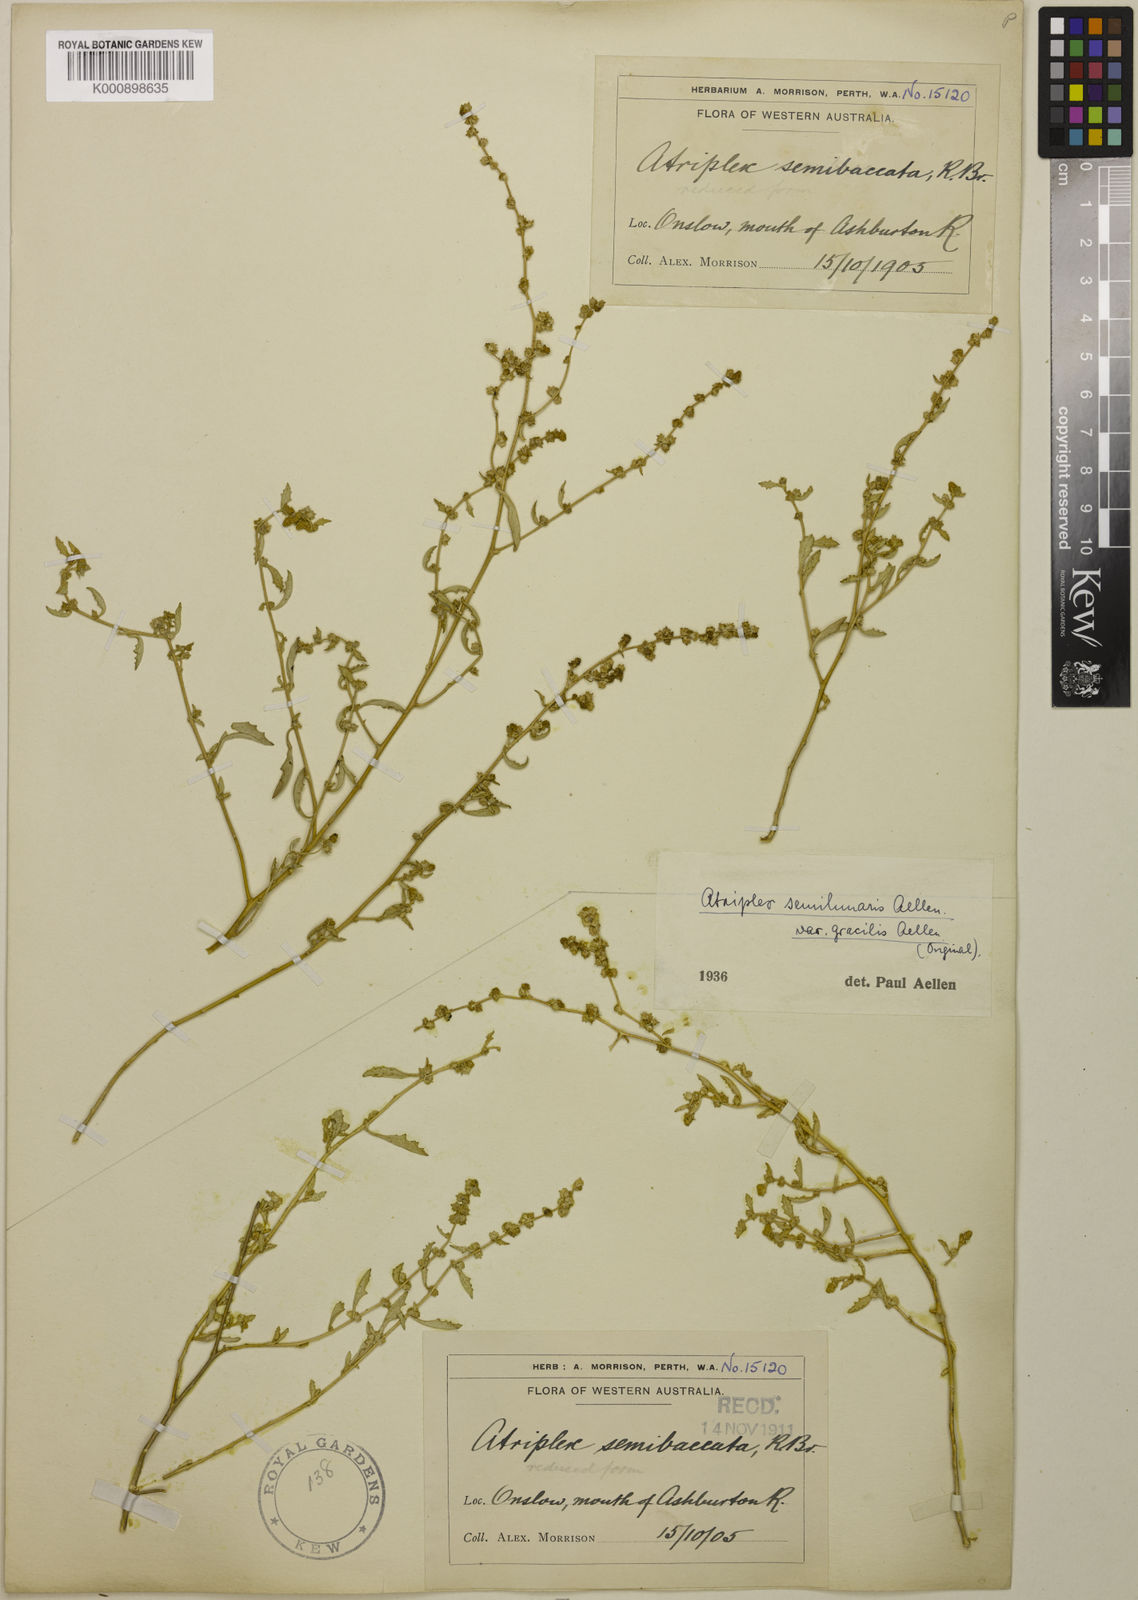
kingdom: Plantae
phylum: Tracheophyta
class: Magnoliopsida
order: Caryophyllales
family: Amaranthaceae
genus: Atriplex
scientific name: Atriplex semilunaris
